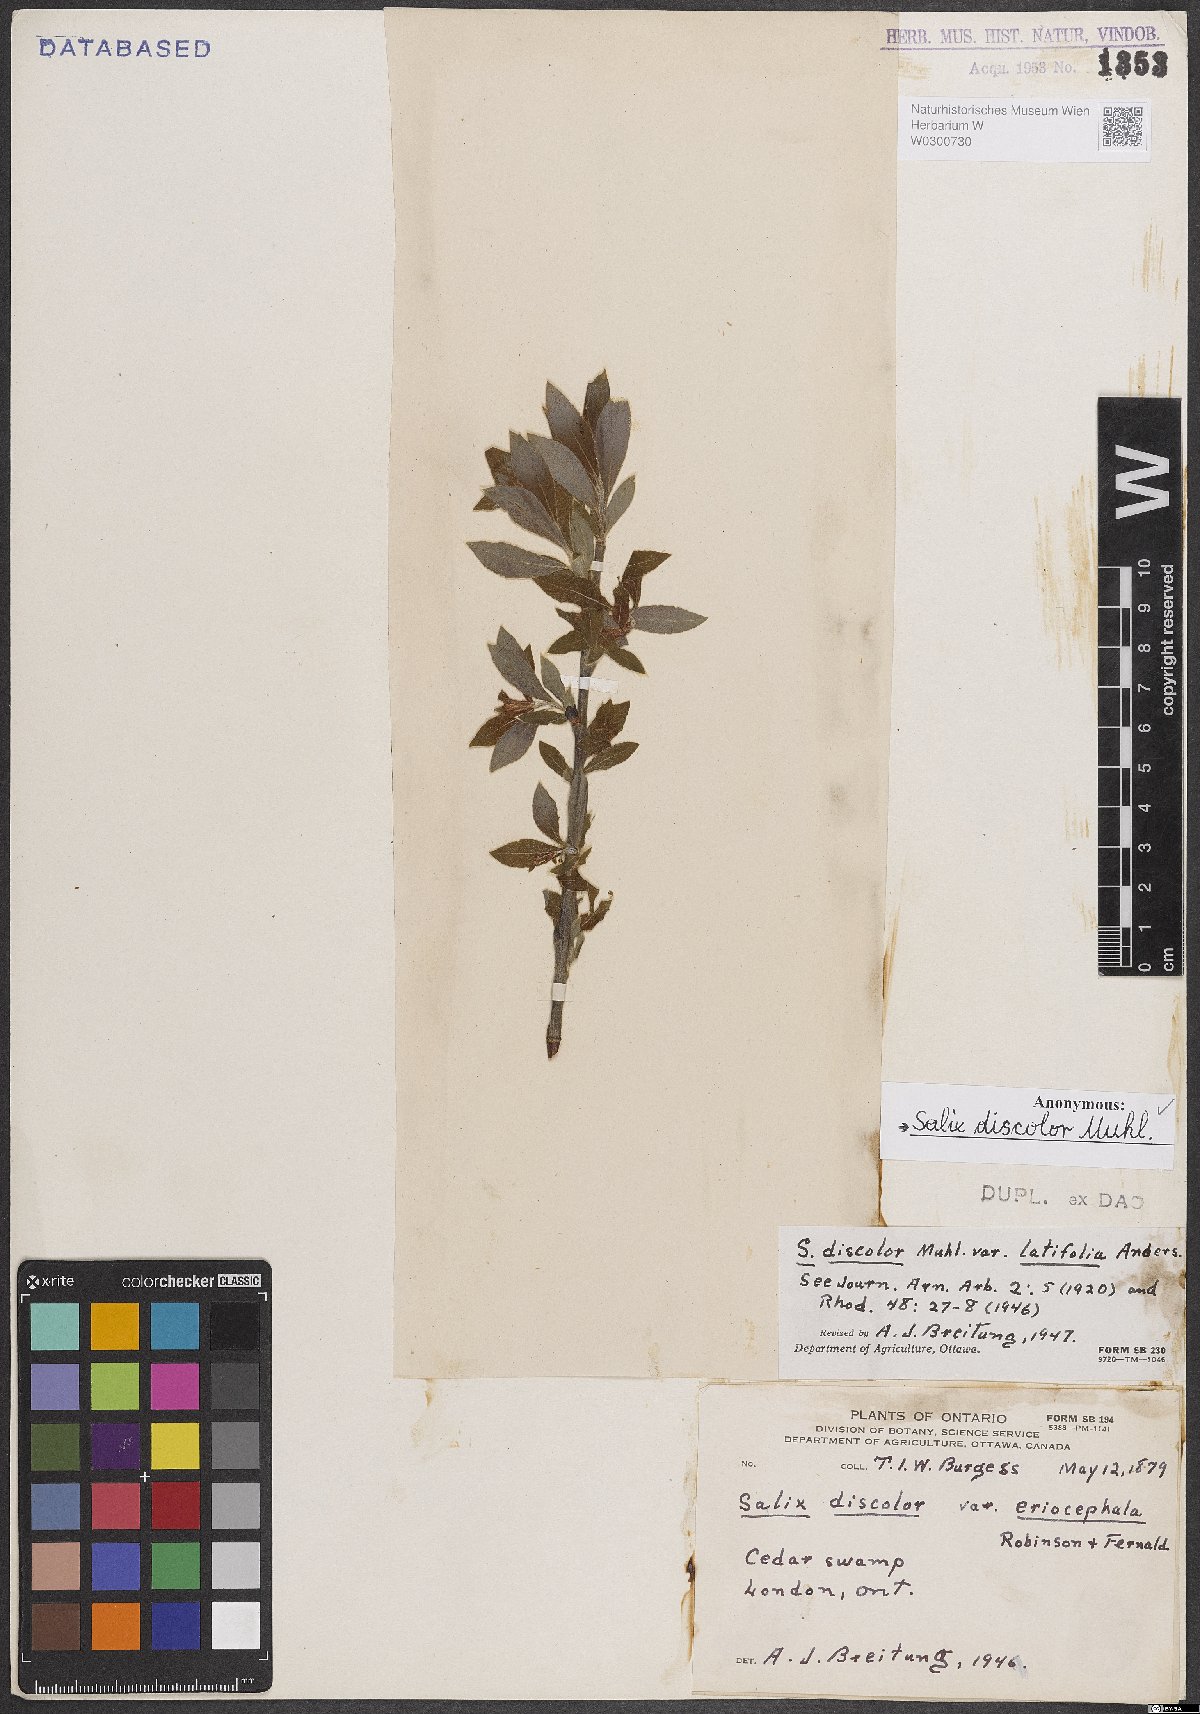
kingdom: Plantae
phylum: Tracheophyta
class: Magnoliopsida
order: Malpighiales
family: Salicaceae
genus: Salix
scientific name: Salix discolor
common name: Glaucous willow
